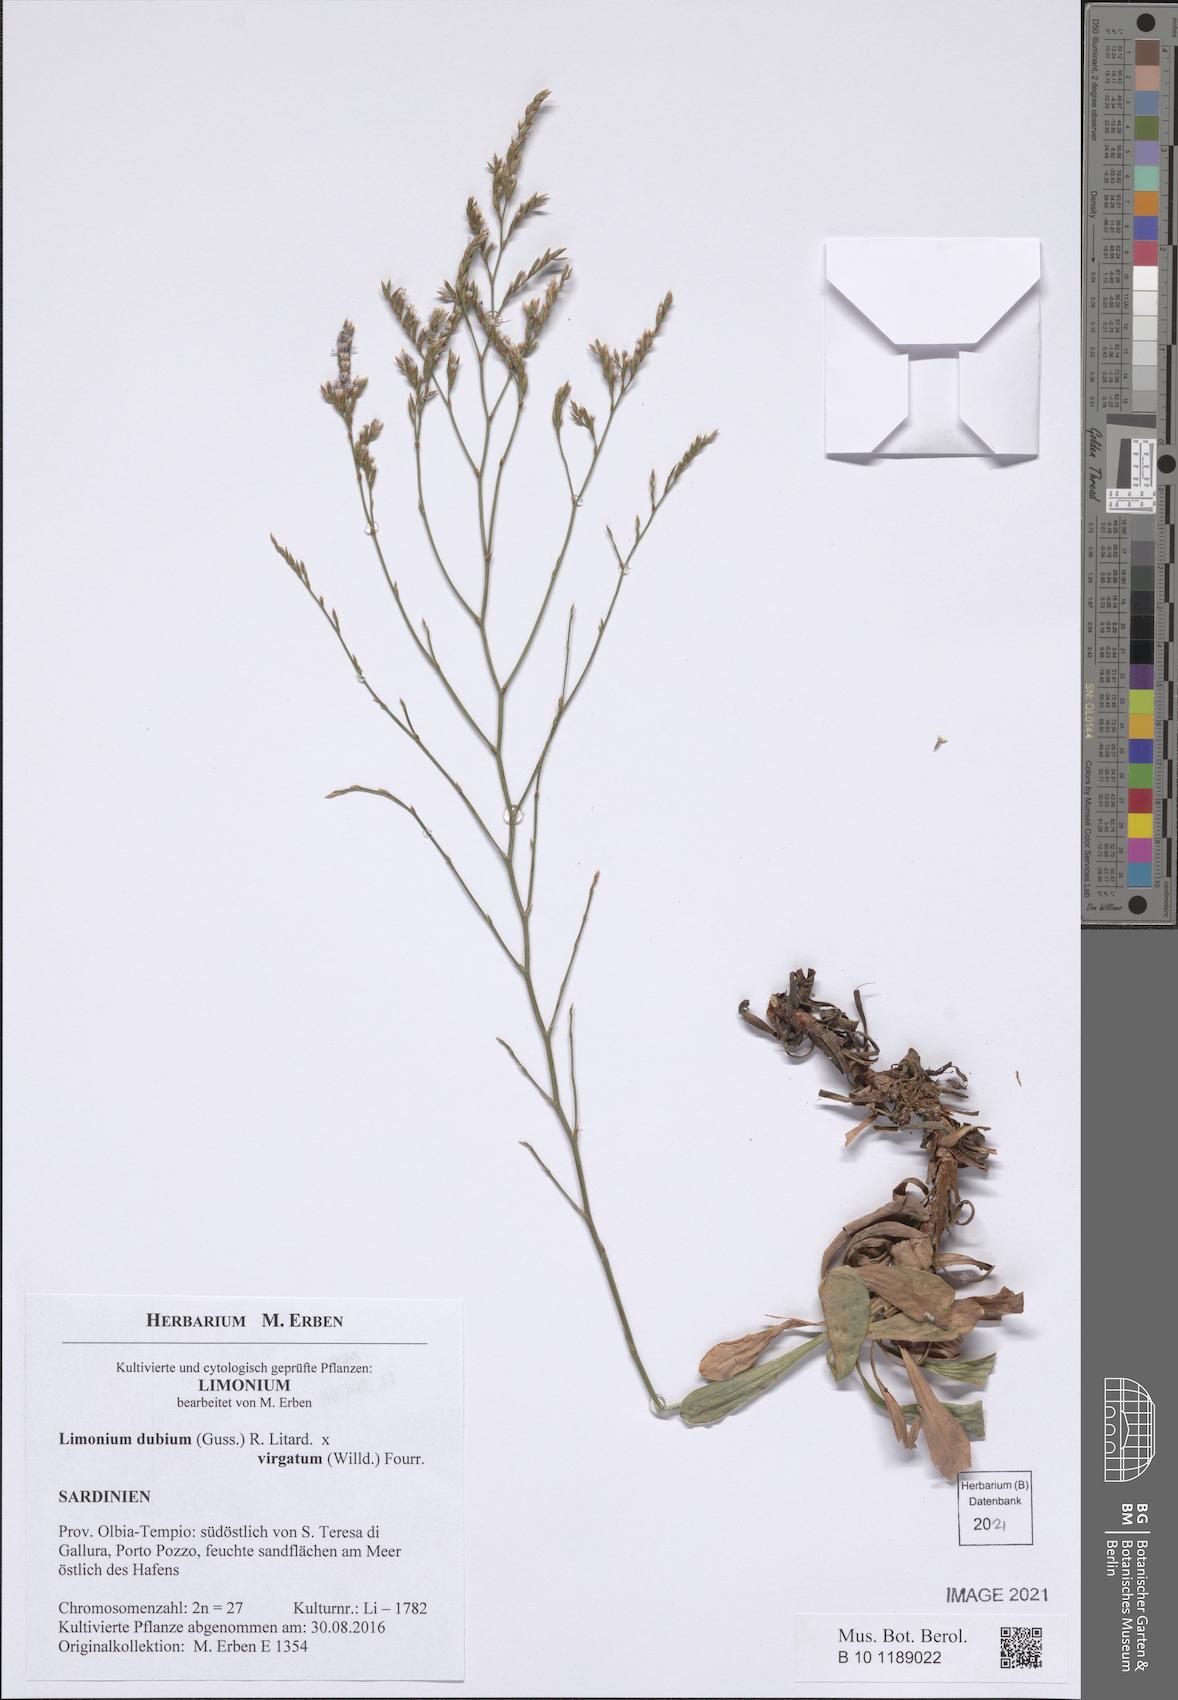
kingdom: Plantae
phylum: Tracheophyta
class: Magnoliopsida
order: Caryophyllales
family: Plumbaginaceae
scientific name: Plumbaginaceae
